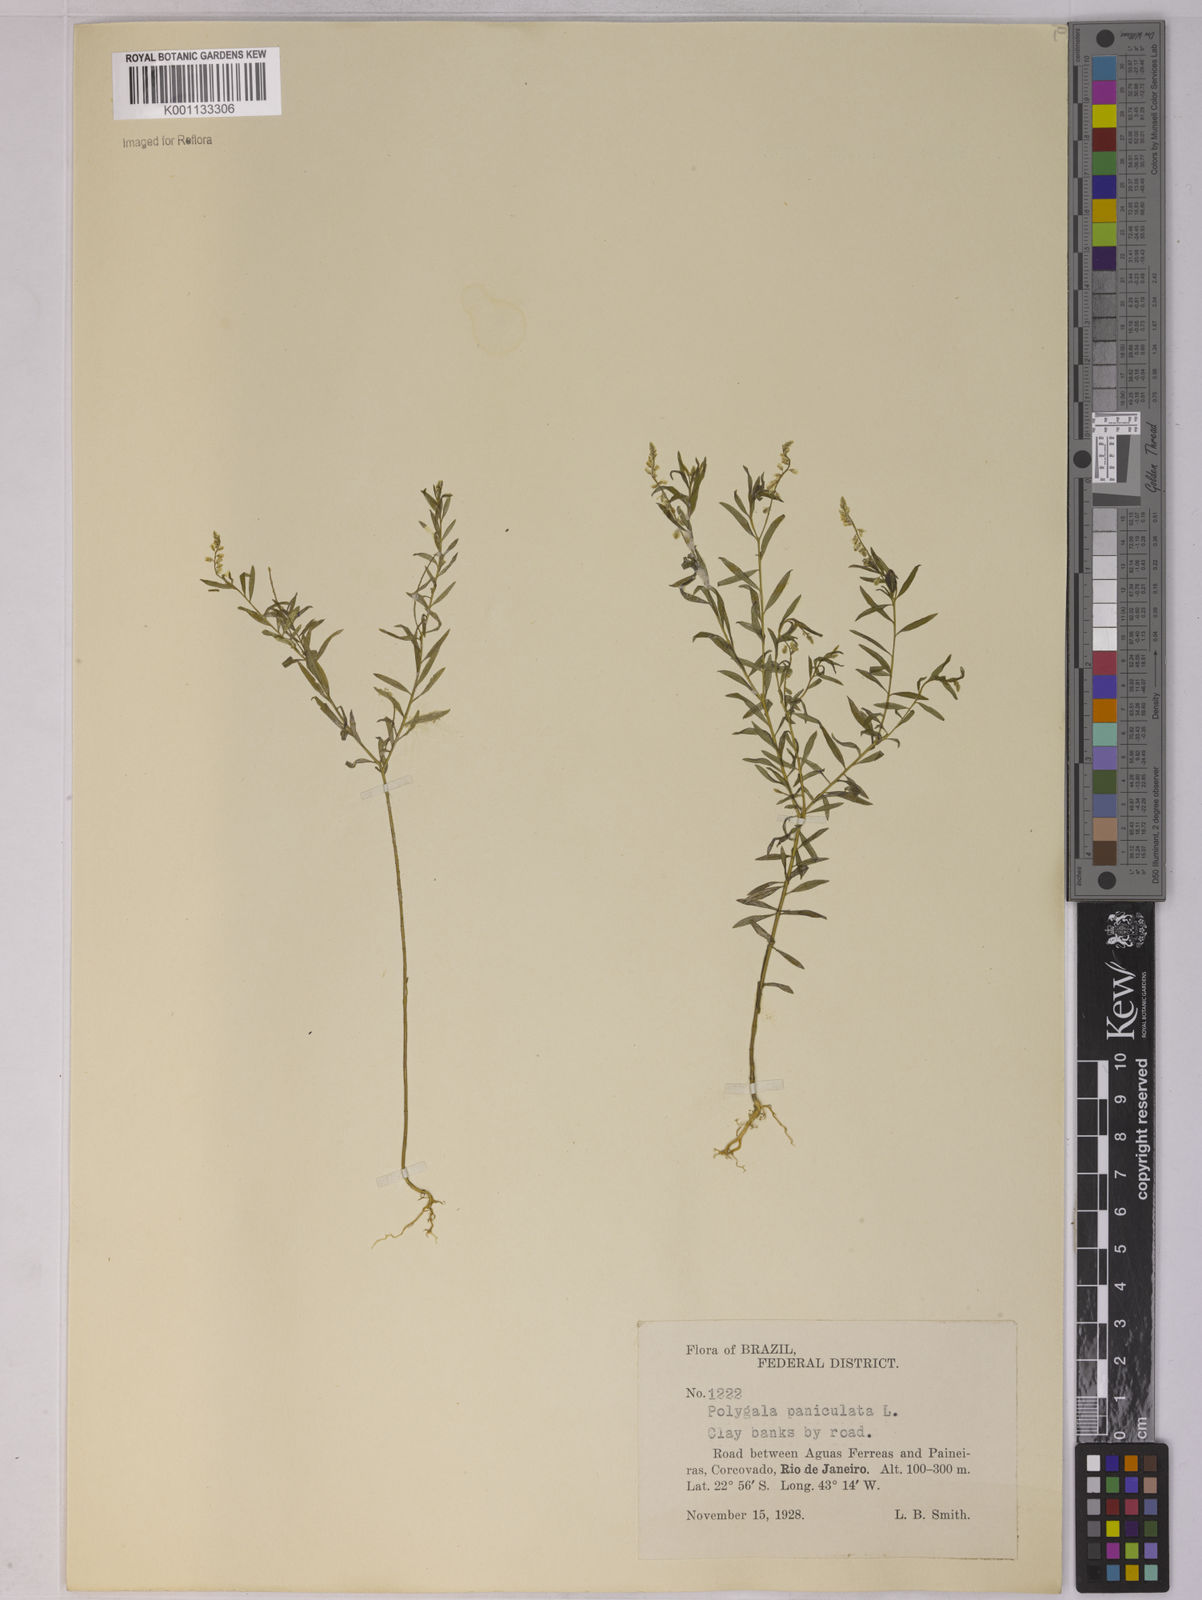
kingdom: Plantae
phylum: Tracheophyta
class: Magnoliopsida
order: Fabales
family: Polygalaceae
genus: Polygala
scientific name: Polygala paniculata
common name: Orosne
